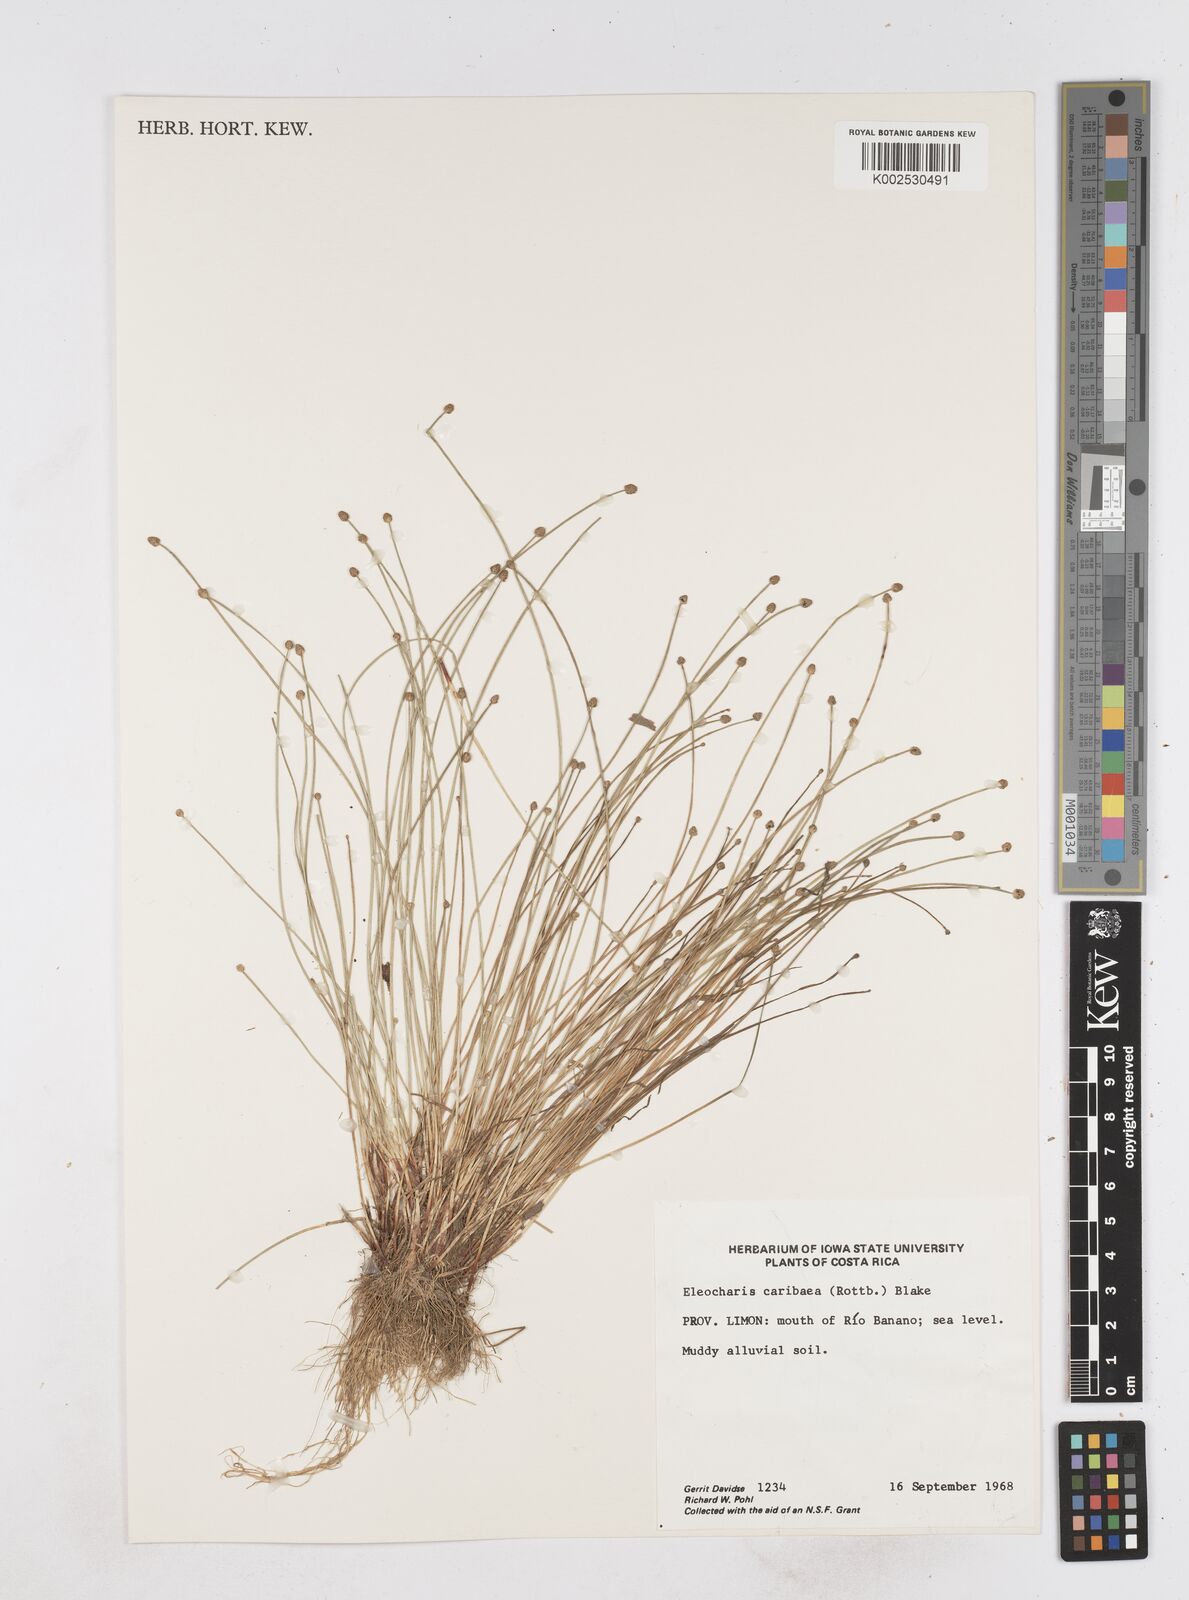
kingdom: Plantae
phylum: Tracheophyta
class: Liliopsida
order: Poales
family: Cyperaceae
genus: Eleocharis
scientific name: Eleocharis geniculata
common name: Canada spikesedge
